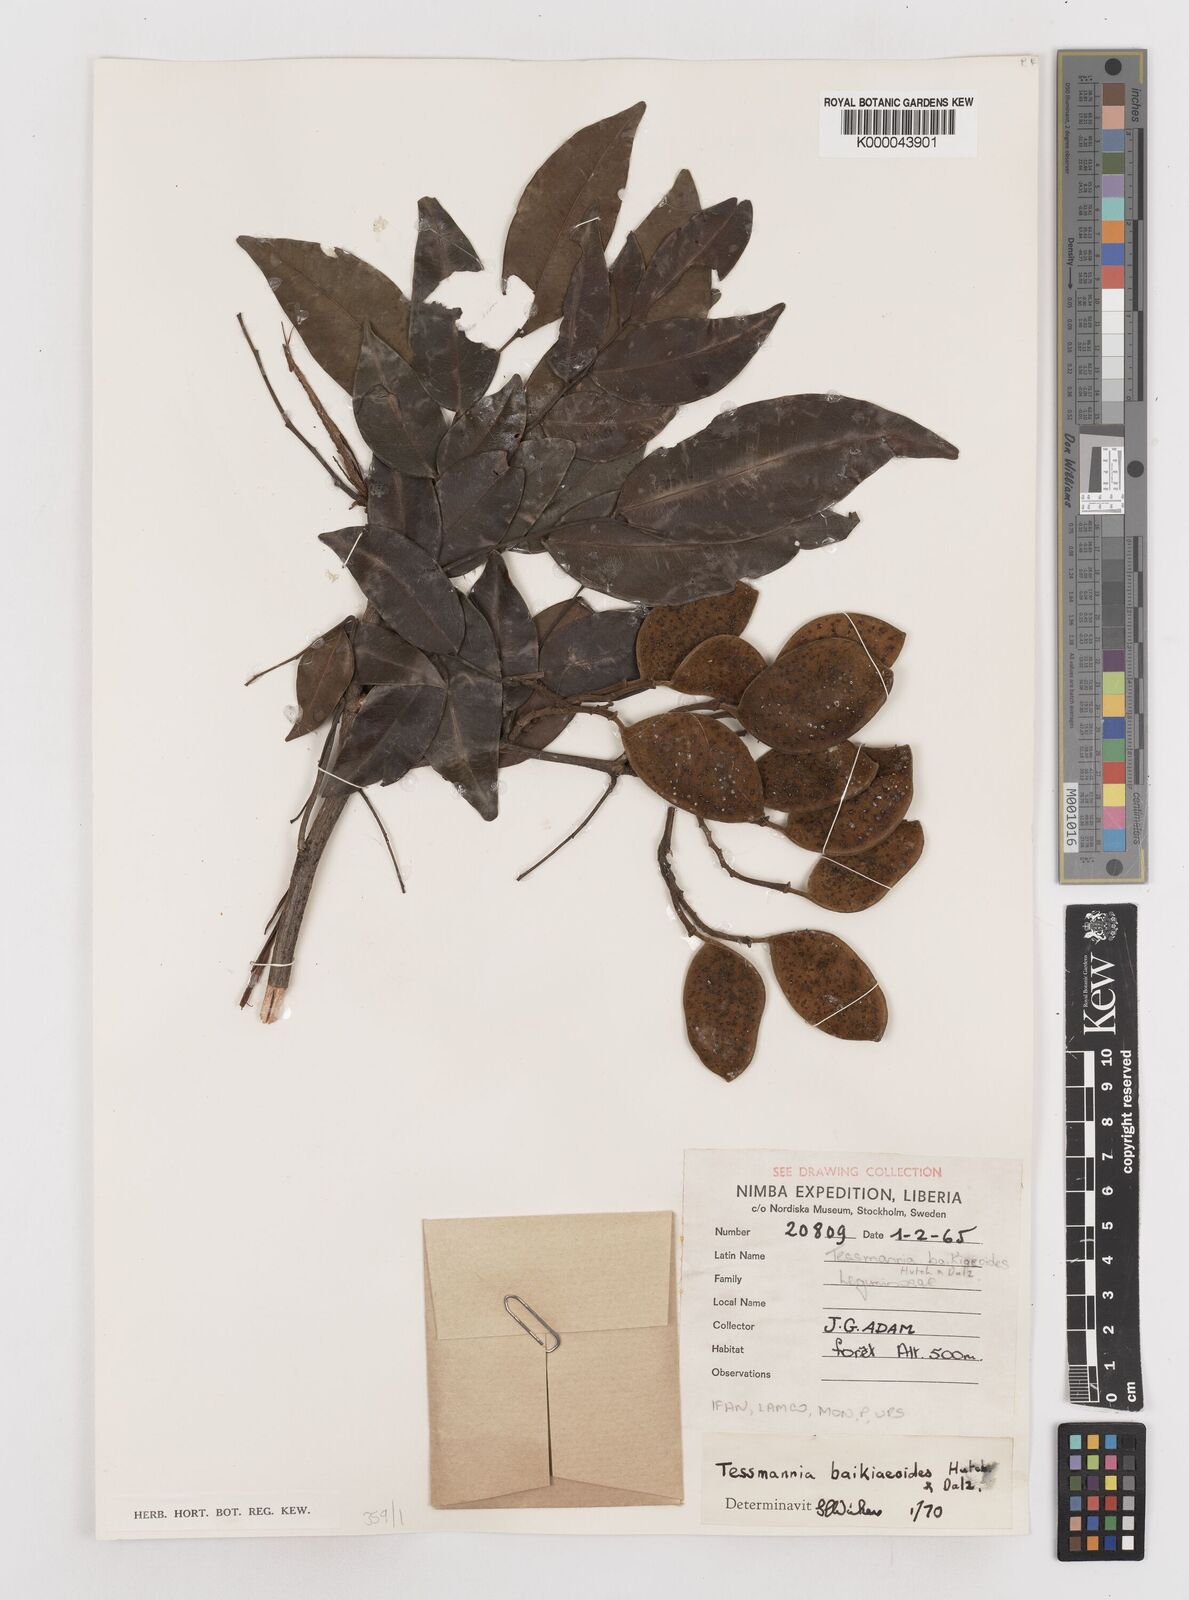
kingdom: Plantae
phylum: Tracheophyta
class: Magnoliopsida
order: Fabales
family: Fabaceae
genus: Tessmannia
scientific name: Tessmannia
